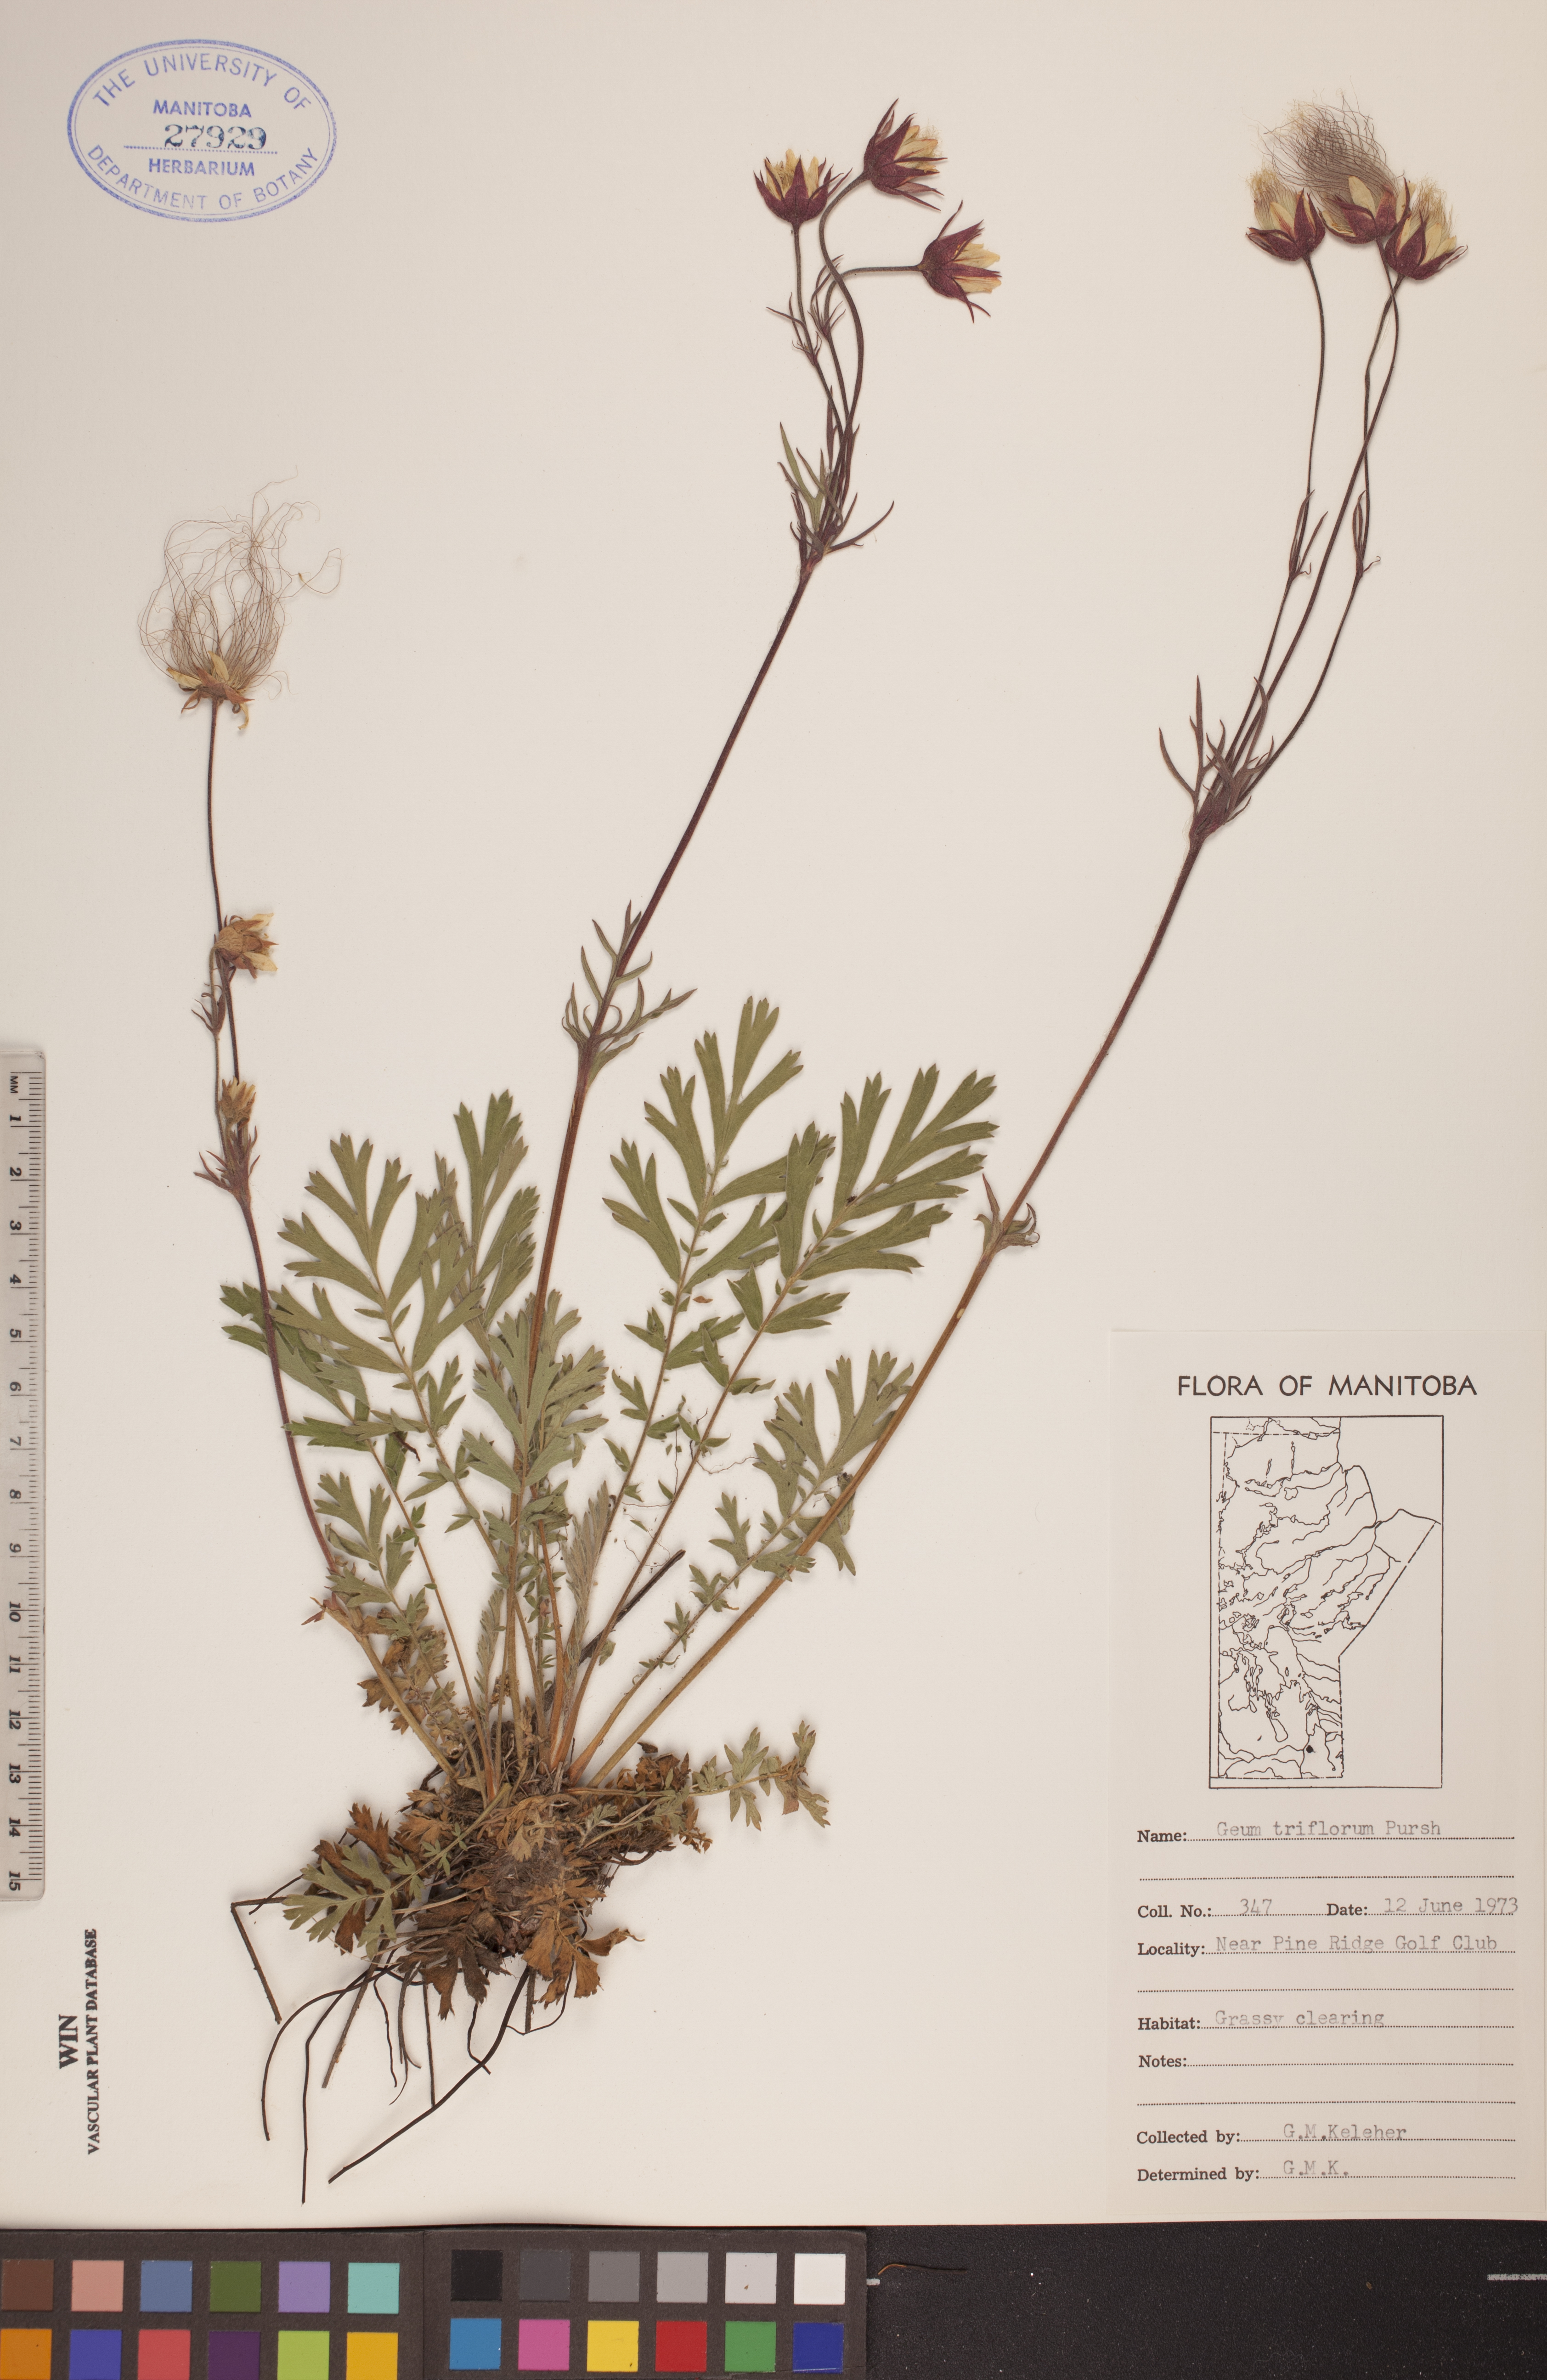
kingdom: Plantae
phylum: Tracheophyta
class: Magnoliopsida
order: Rosales
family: Rosaceae
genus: Geum
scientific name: Geum triflorum
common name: Old man's whiskers
